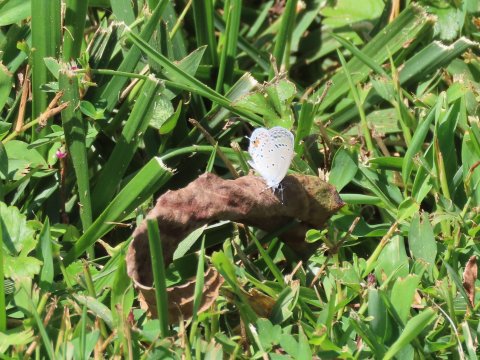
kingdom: Animalia
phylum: Arthropoda
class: Insecta
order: Lepidoptera
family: Lycaenidae
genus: Elkalyce
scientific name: Elkalyce comyntas
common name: Eastern Tailed-Blue
